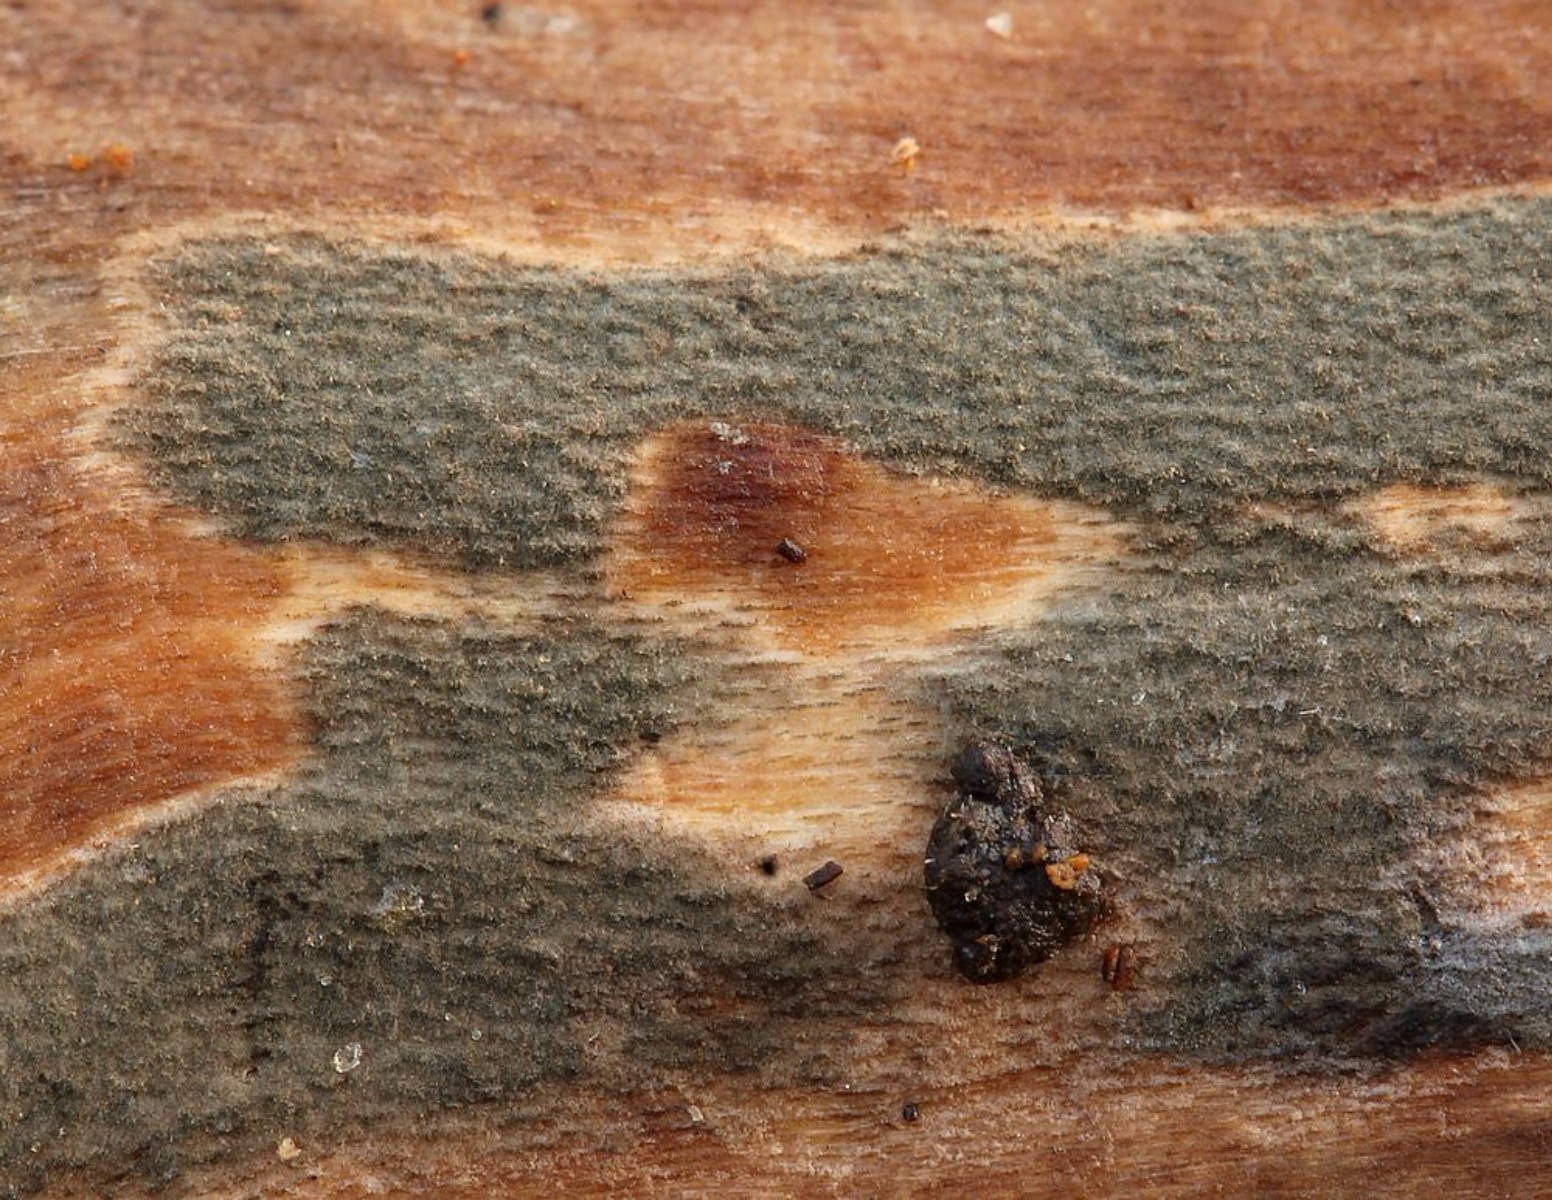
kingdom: Fungi
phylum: Ascomycota
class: Sordariomycetes
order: Xylariales
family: Xylariaceae
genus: Nemania
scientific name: Nemania
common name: kuldyne
